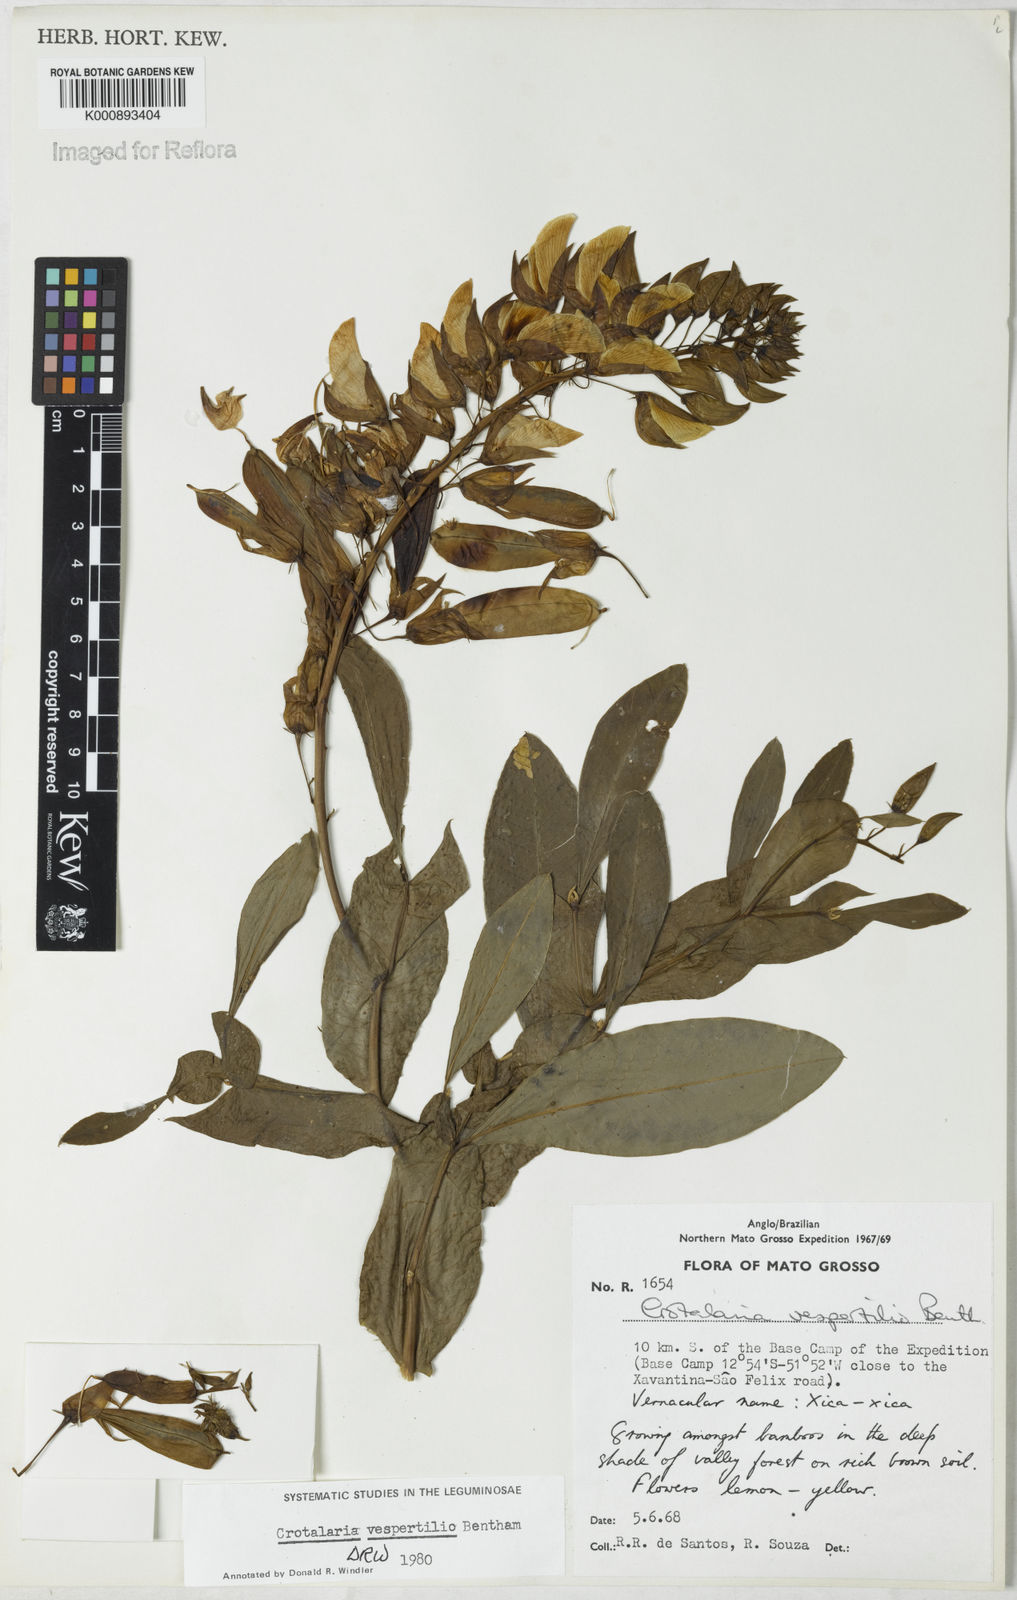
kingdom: Plantae
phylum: Tracheophyta
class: Magnoliopsida
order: Fabales
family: Fabaceae
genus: Crotalaria
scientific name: Crotalaria vespertilio
